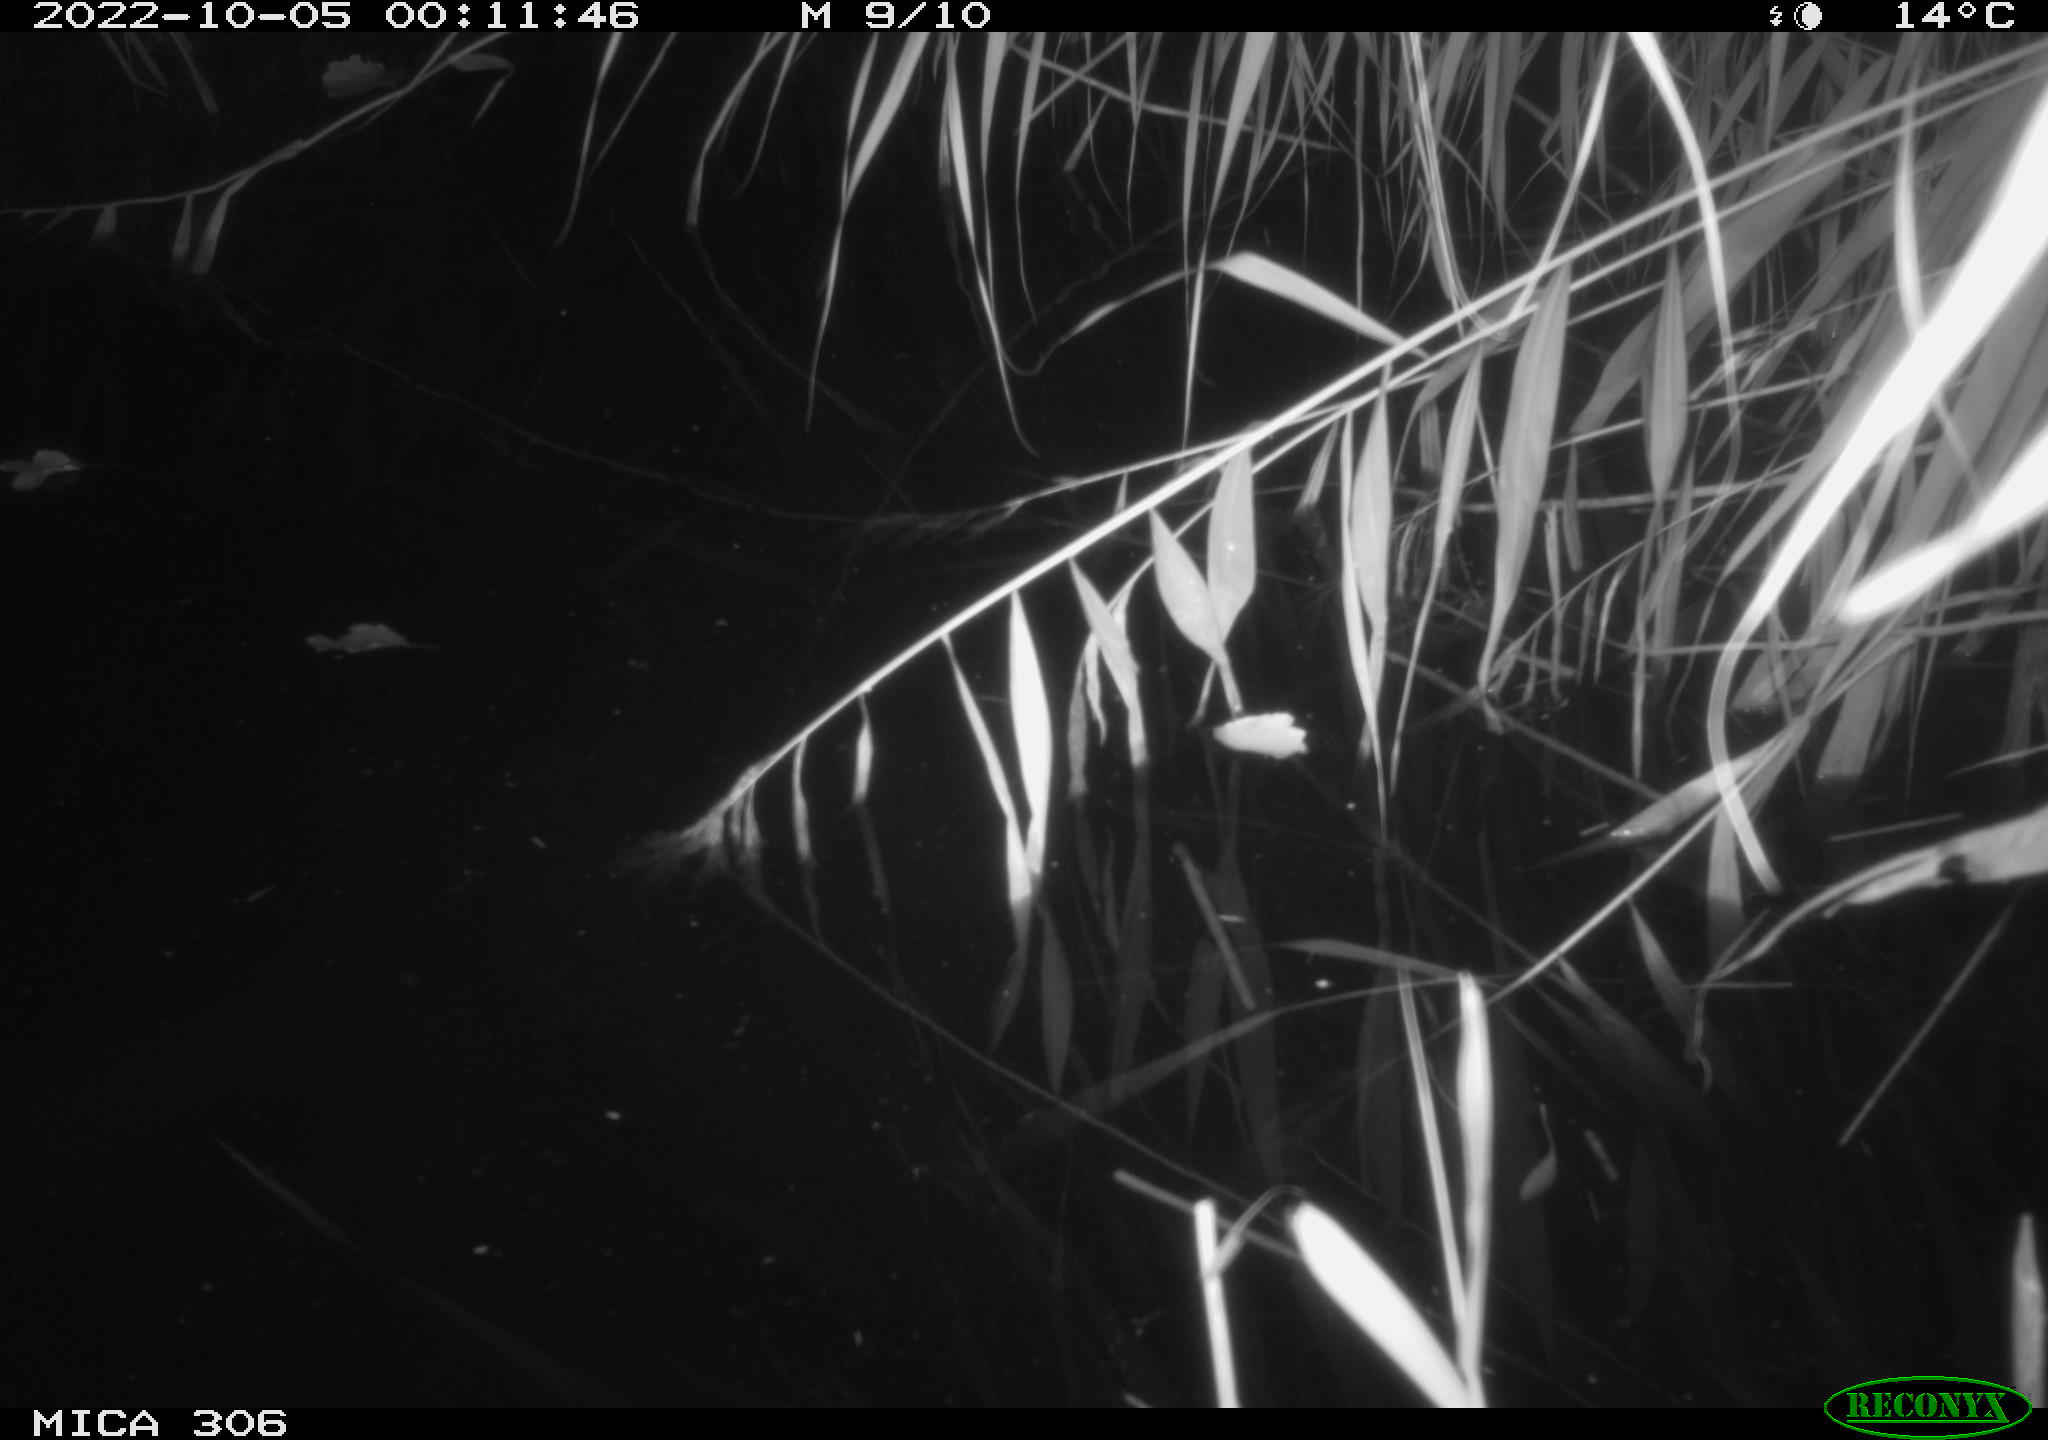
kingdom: Animalia
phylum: Chordata
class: Mammalia
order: Rodentia
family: Muridae
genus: Rattus
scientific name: Rattus norvegicus
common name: Brown rat
